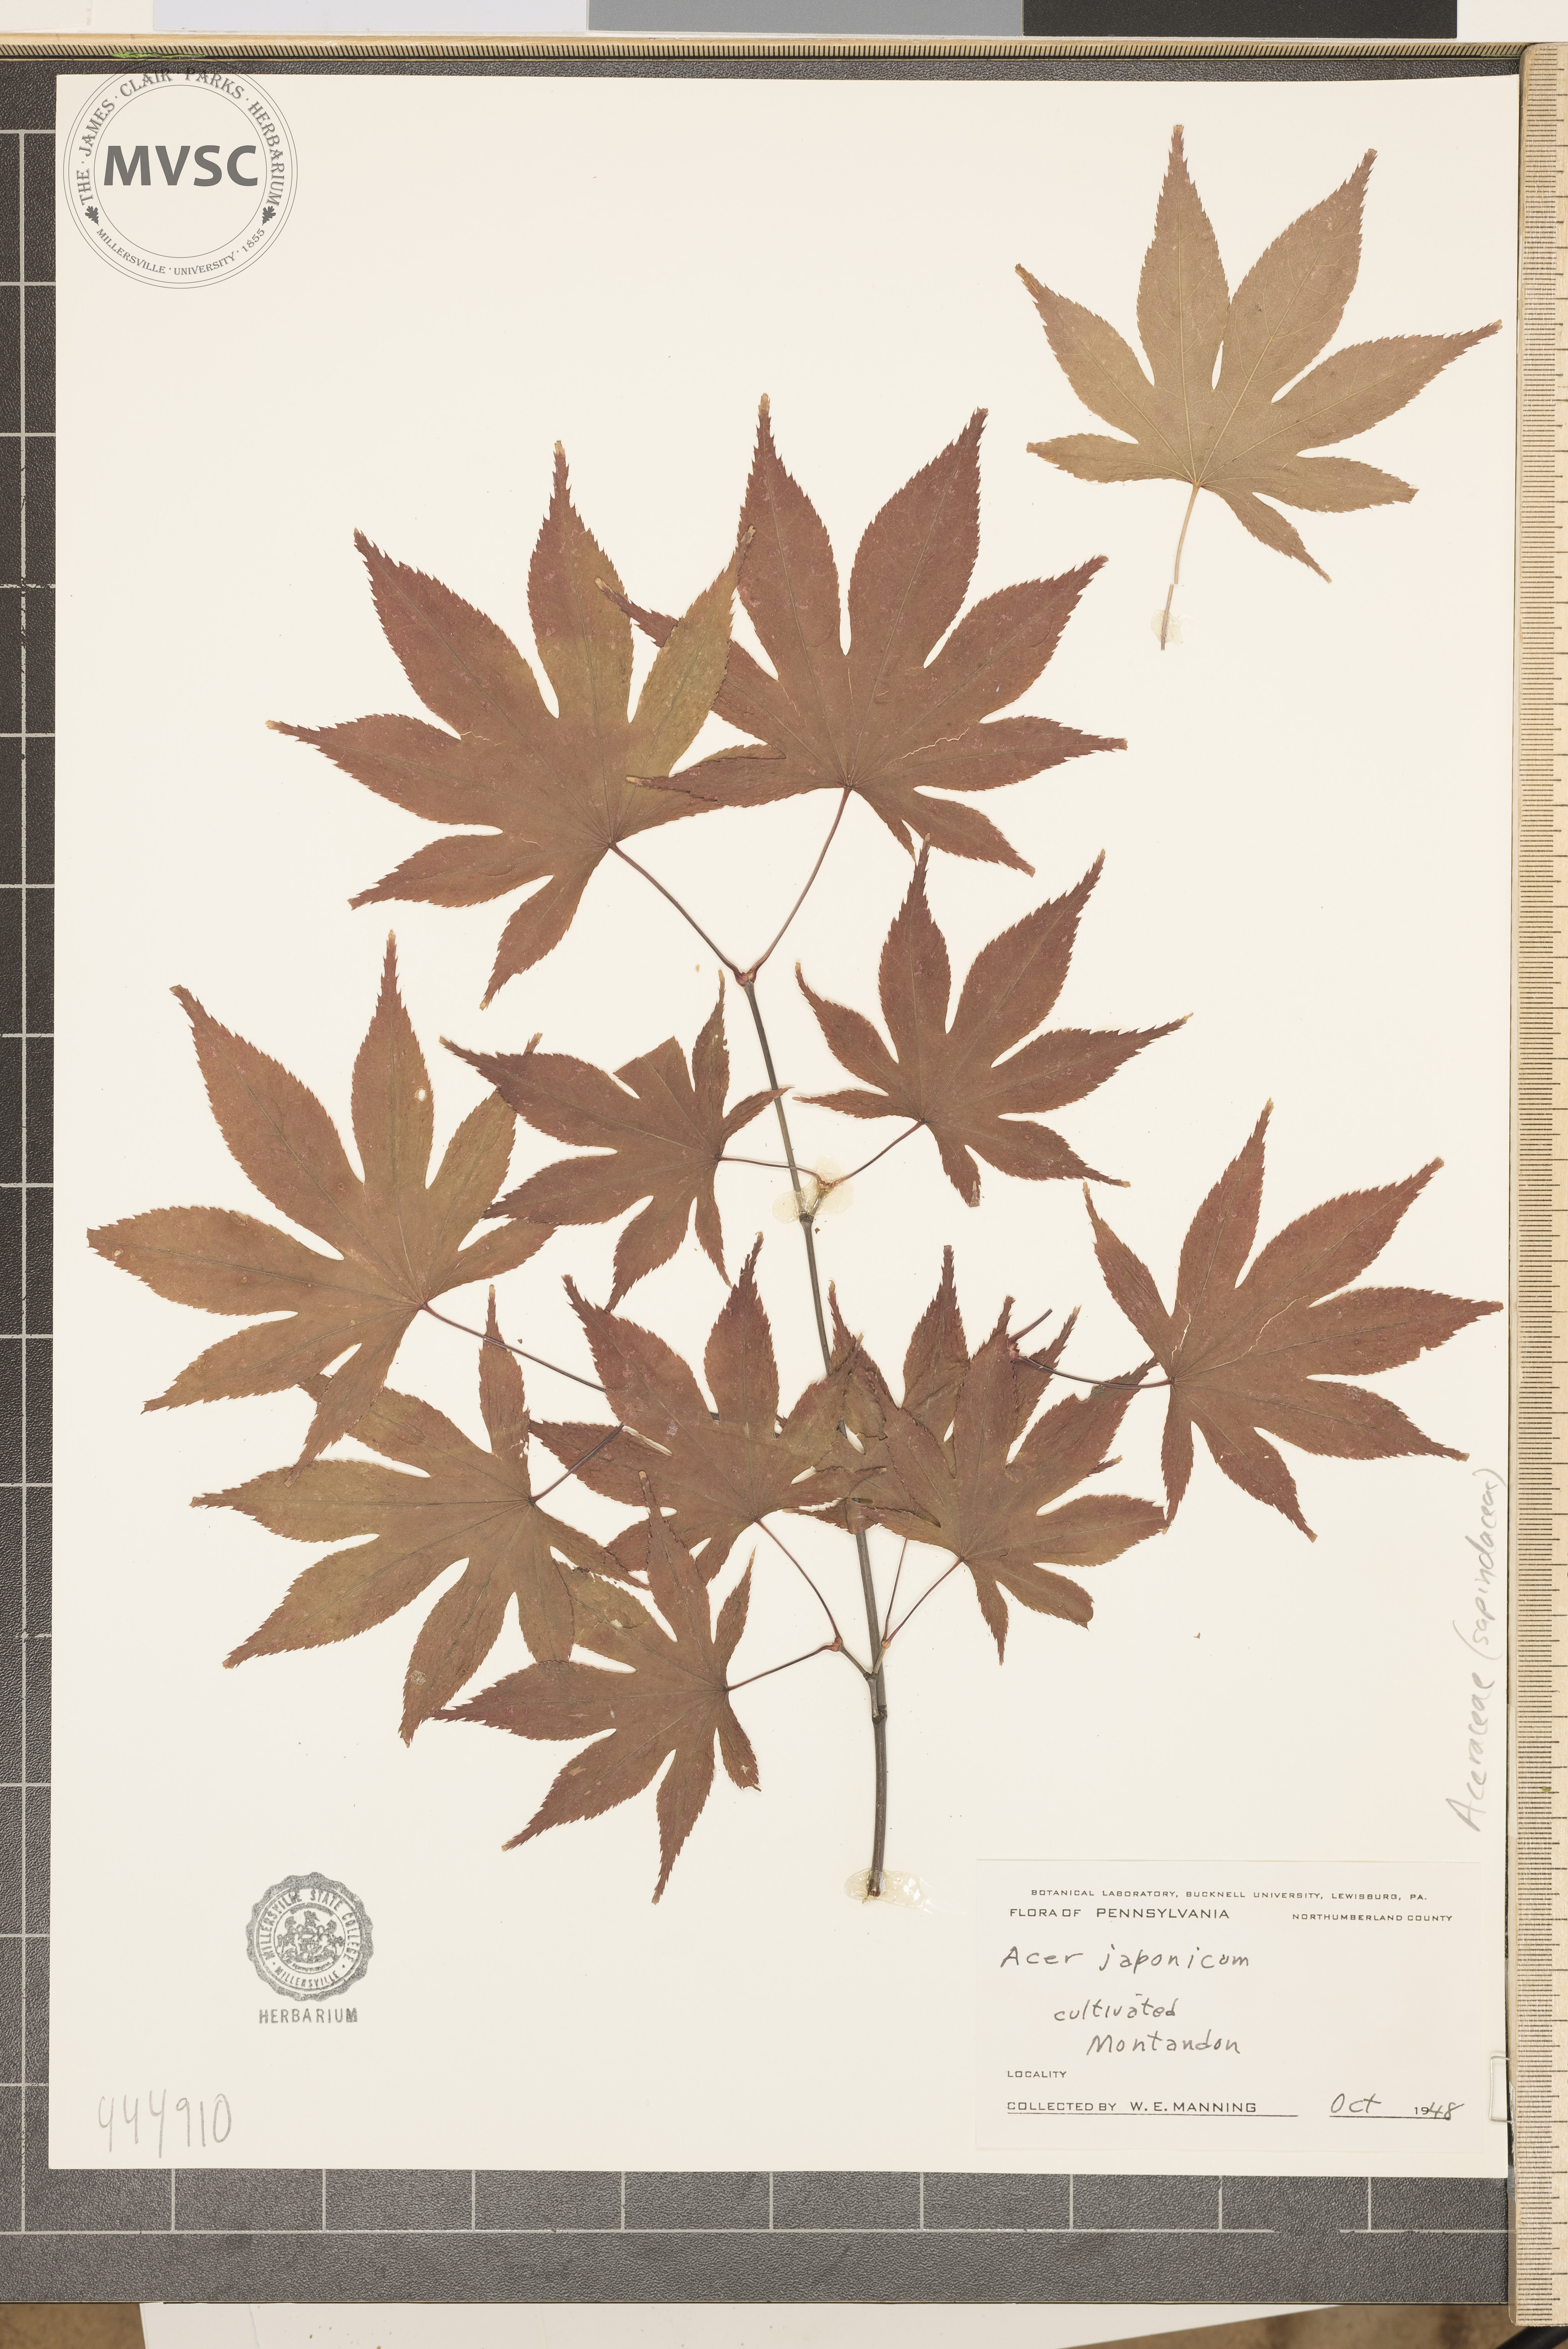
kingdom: Plantae
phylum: Tracheophyta
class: Magnoliopsida
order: Sapindales
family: Sapindaceae
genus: Acer
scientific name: Acer japonicum
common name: Amur maple
